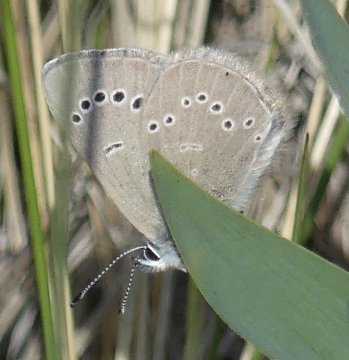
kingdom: Animalia
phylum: Arthropoda
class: Insecta
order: Lepidoptera
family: Lycaenidae
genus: Glaucopsyche
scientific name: Glaucopsyche lygdamus
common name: Silvery Blue
